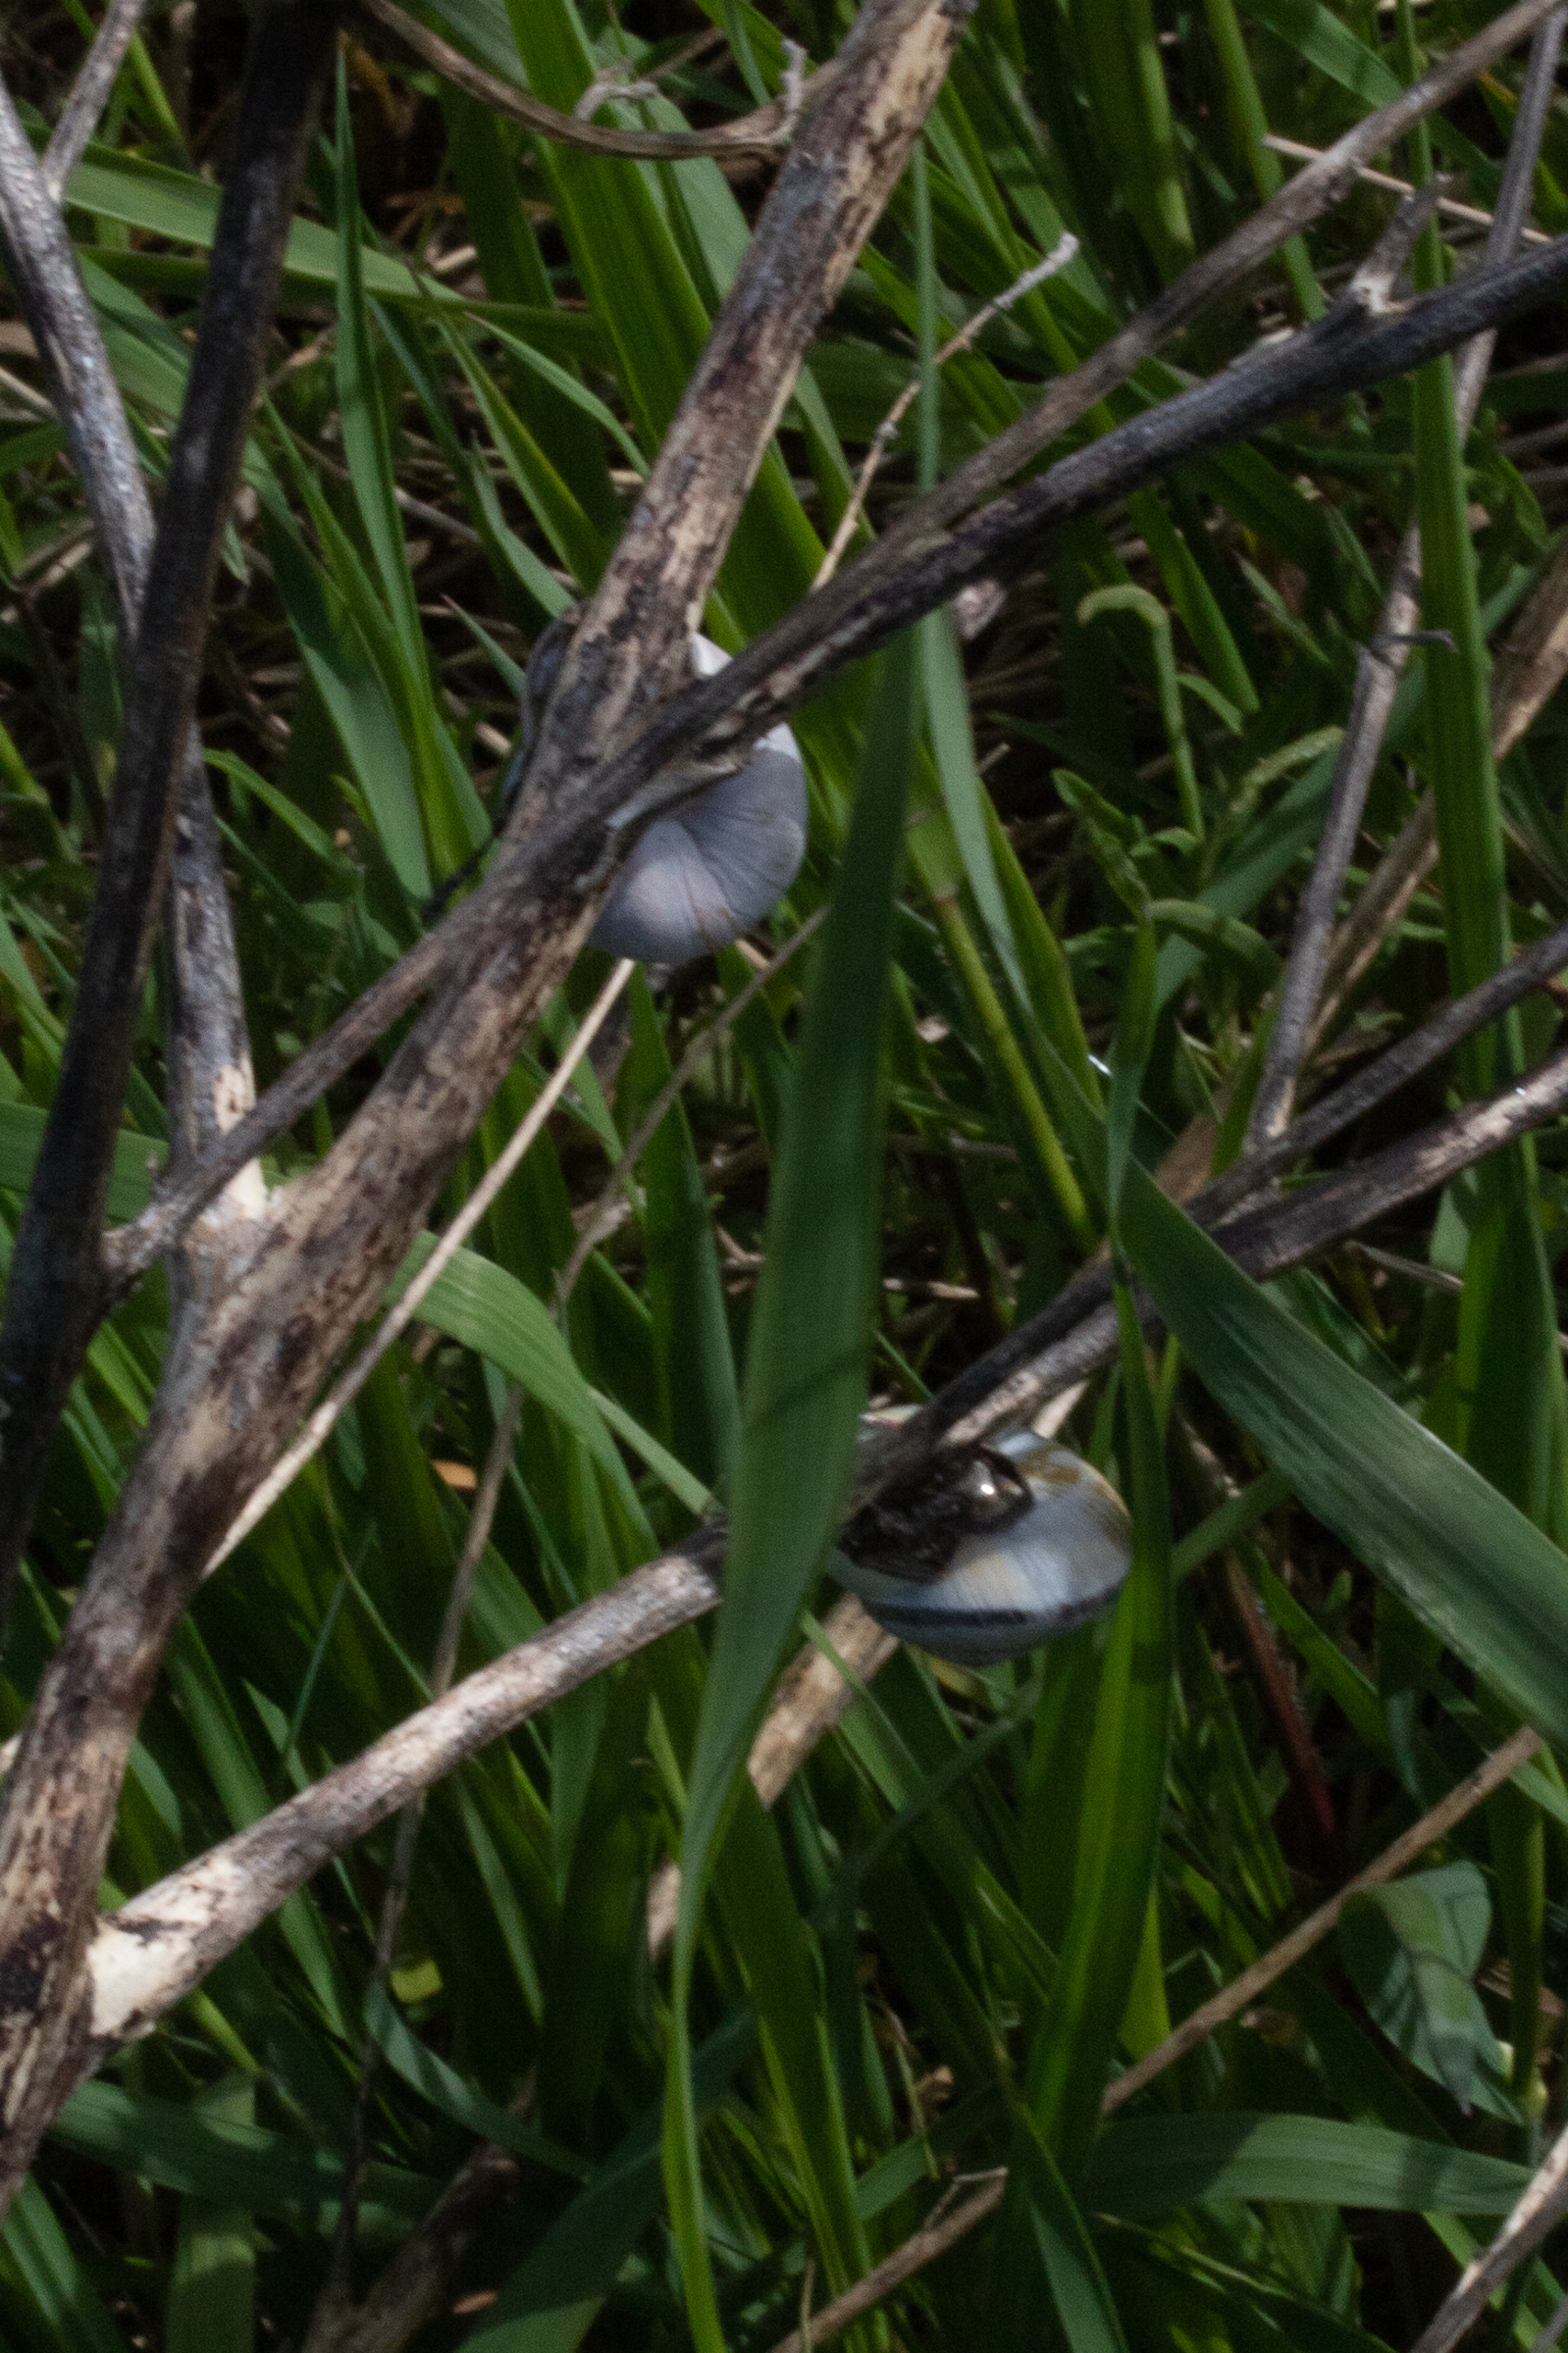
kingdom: Animalia
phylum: Mollusca
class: Gastropoda
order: Stylommatophora
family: Helicidae
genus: Cepaea
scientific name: Cepaea nemoralis
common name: Lundsnegl
